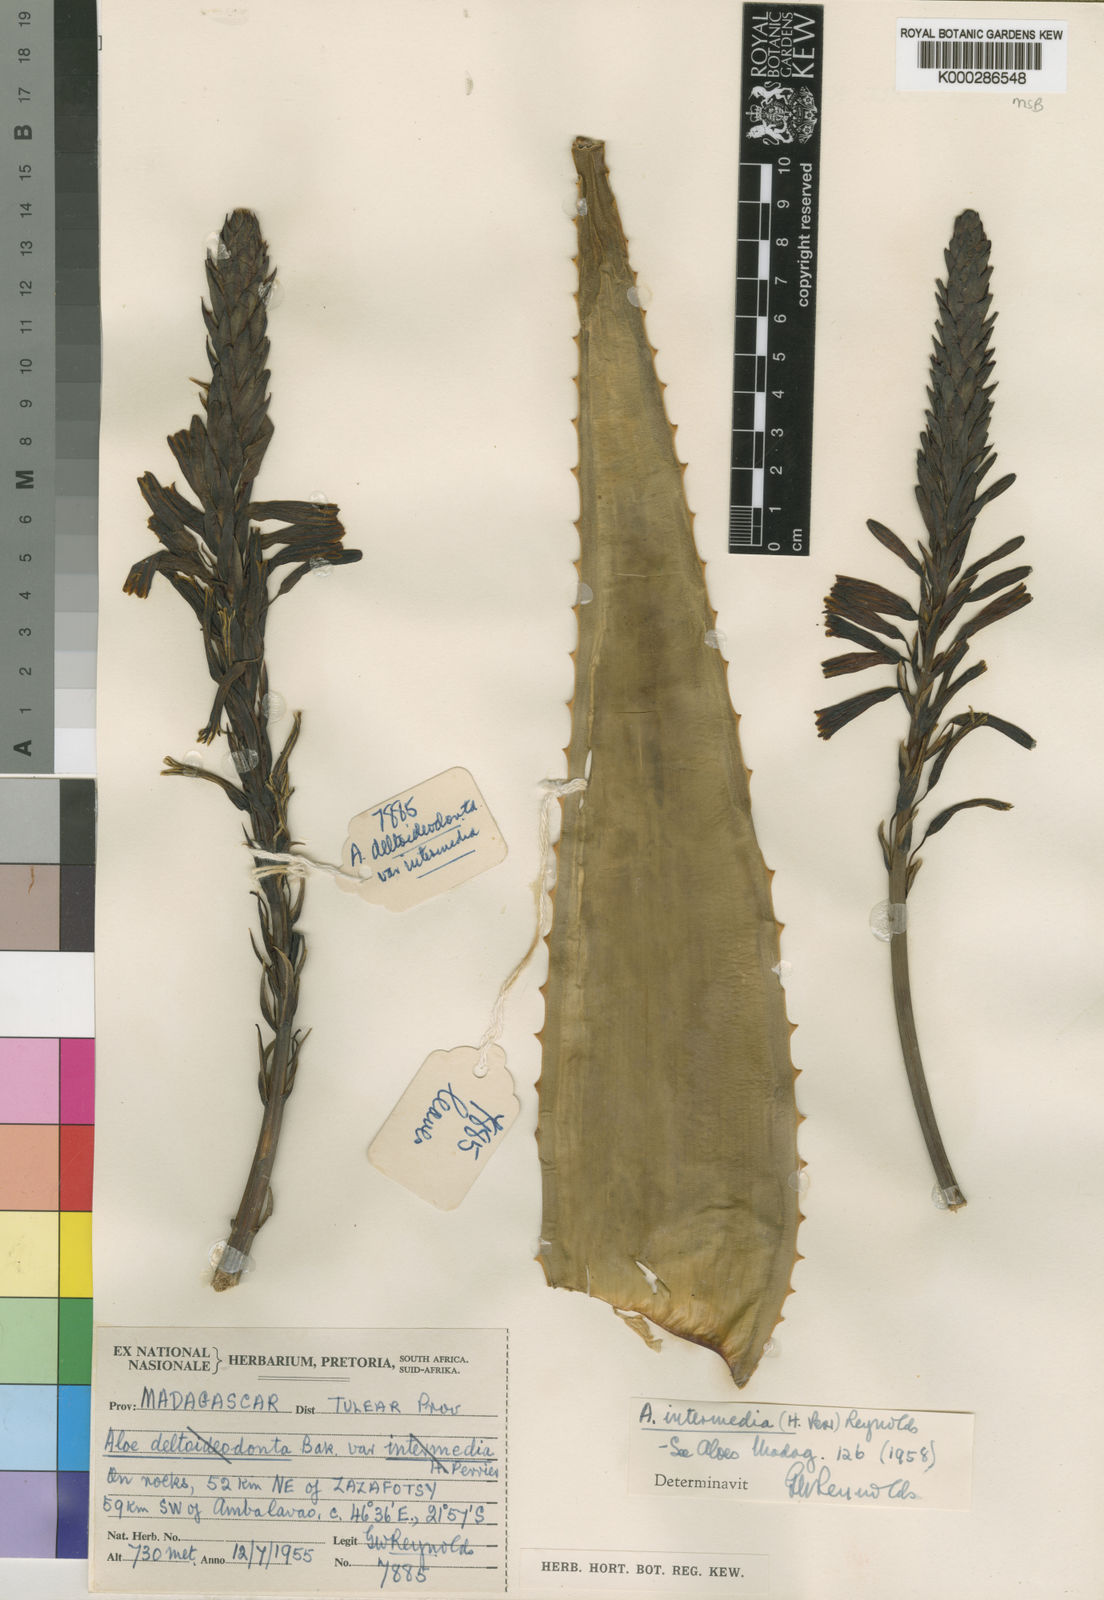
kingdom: Plantae
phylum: Tracheophyta
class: Liliopsida
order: Asparagales
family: Asphodelaceae
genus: Aloe
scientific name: Aloe subacutissima
